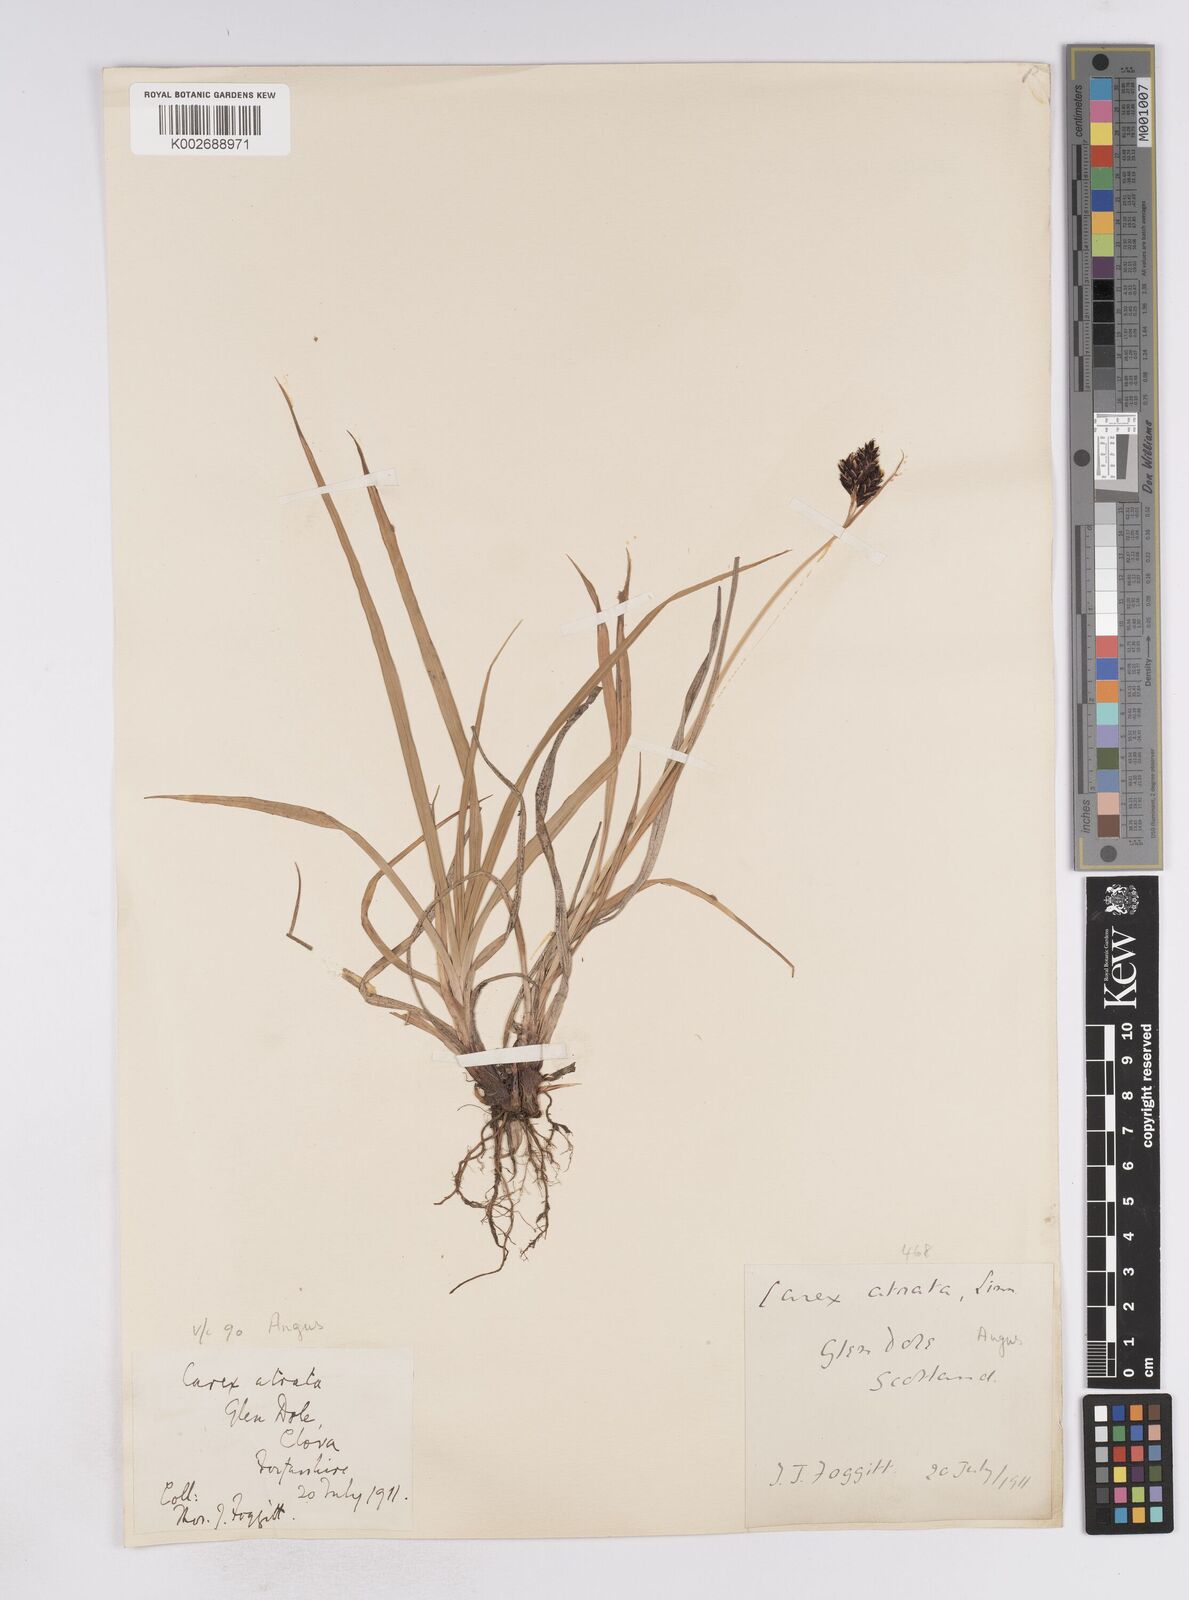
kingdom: Plantae
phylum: Tracheophyta
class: Liliopsida
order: Poales
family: Cyperaceae
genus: Carex
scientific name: Carex atrata
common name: Black alpine sedge
